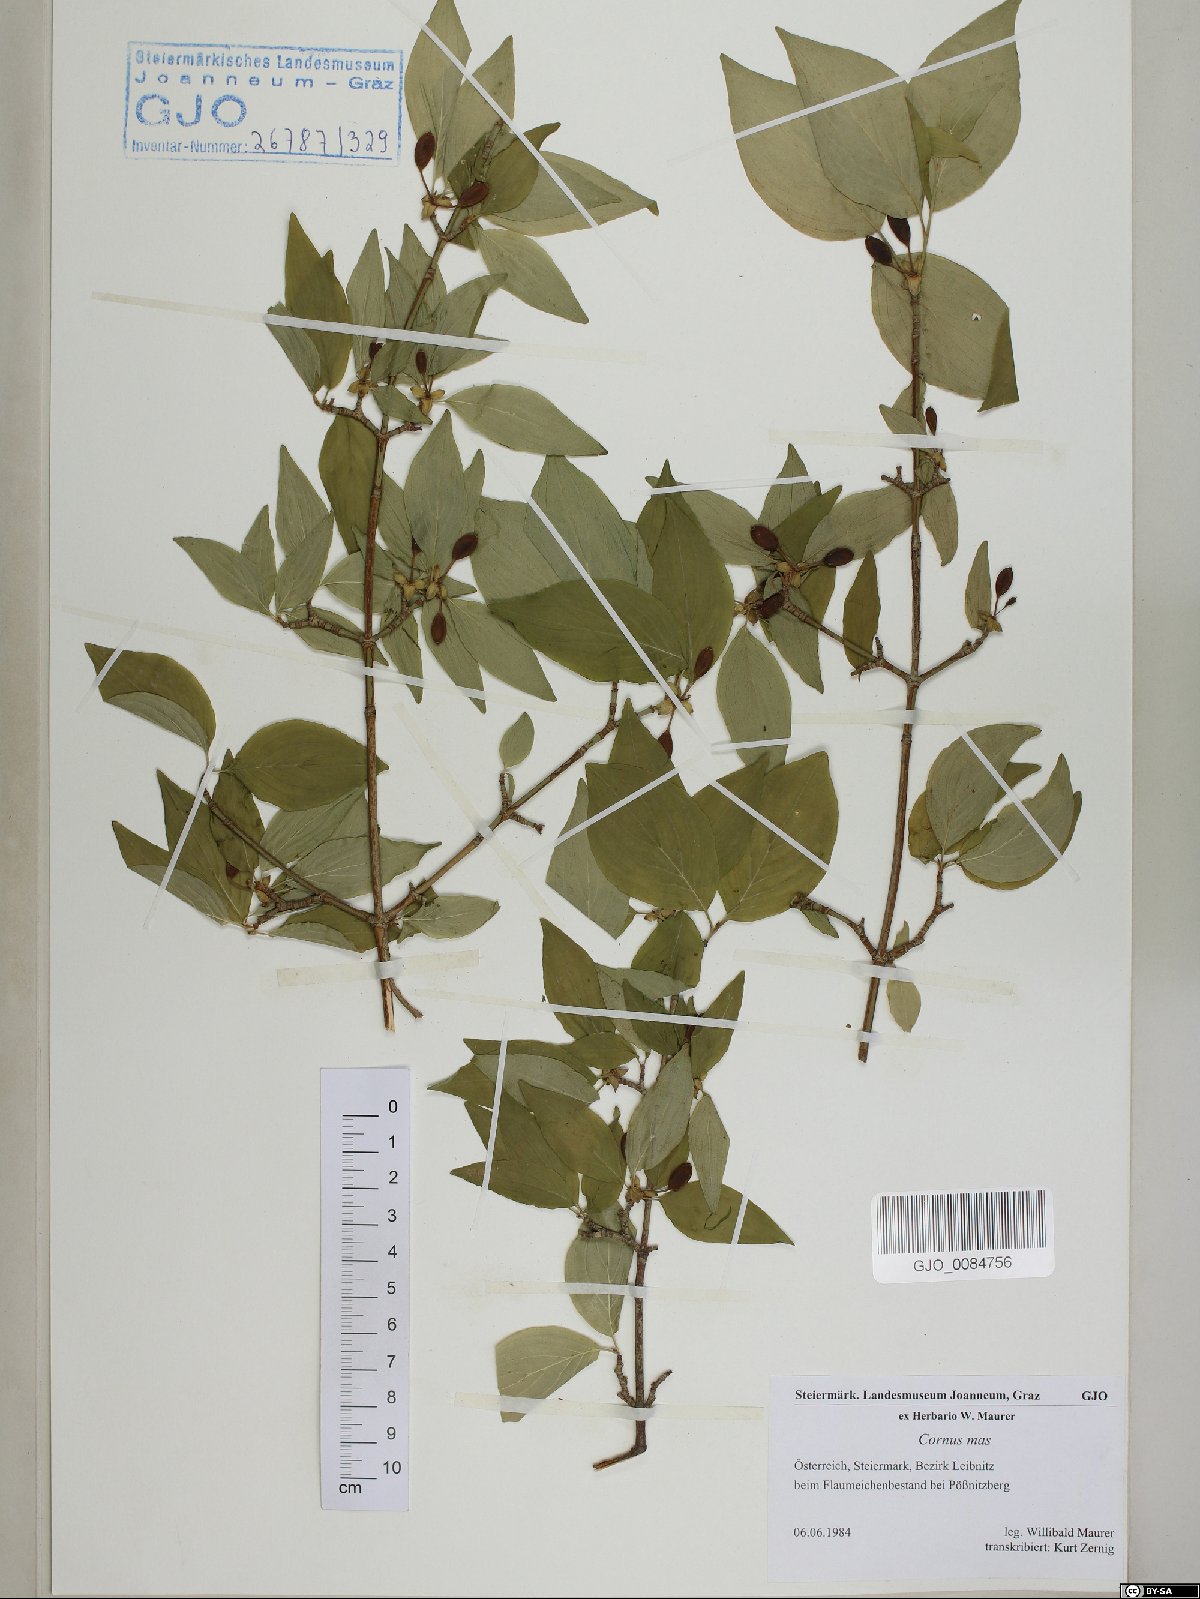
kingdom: Plantae
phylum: Tracheophyta
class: Magnoliopsida
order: Cornales
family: Cornaceae
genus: Cornus
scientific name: Cornus mas
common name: Cornelian-cherry
